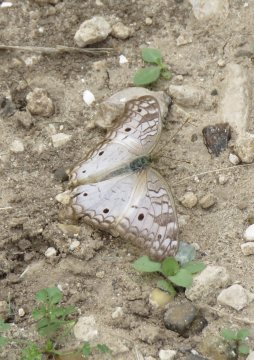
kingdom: Animalia
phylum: Arthropoda
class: Insecta
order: Lepidoptera
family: Nymphalidae
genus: Anartia
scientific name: Anartia jatrophae
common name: White Peacock
